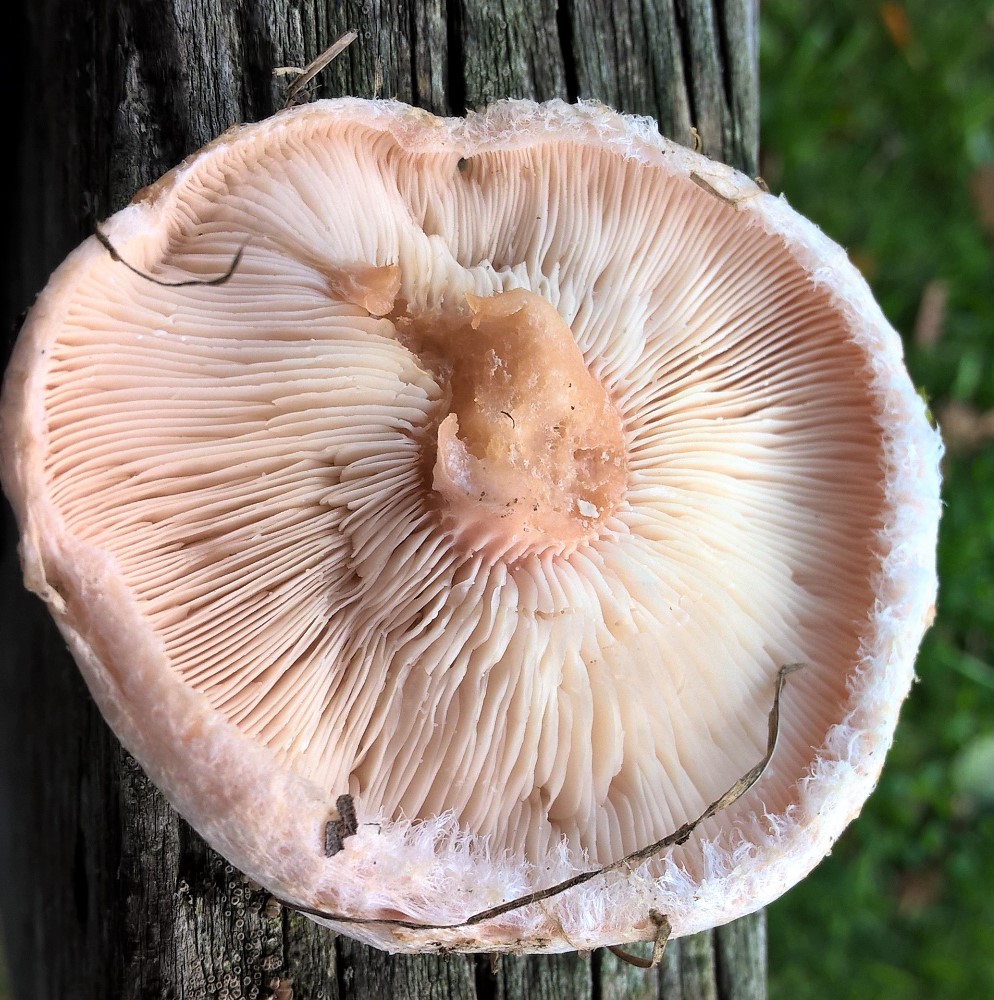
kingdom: Fungi
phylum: Basidiomycota
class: Agaricomycetes
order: Russulales
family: Russulaceae
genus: Lactarius
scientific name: Lactarius pubescens
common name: dunet mælkehat
